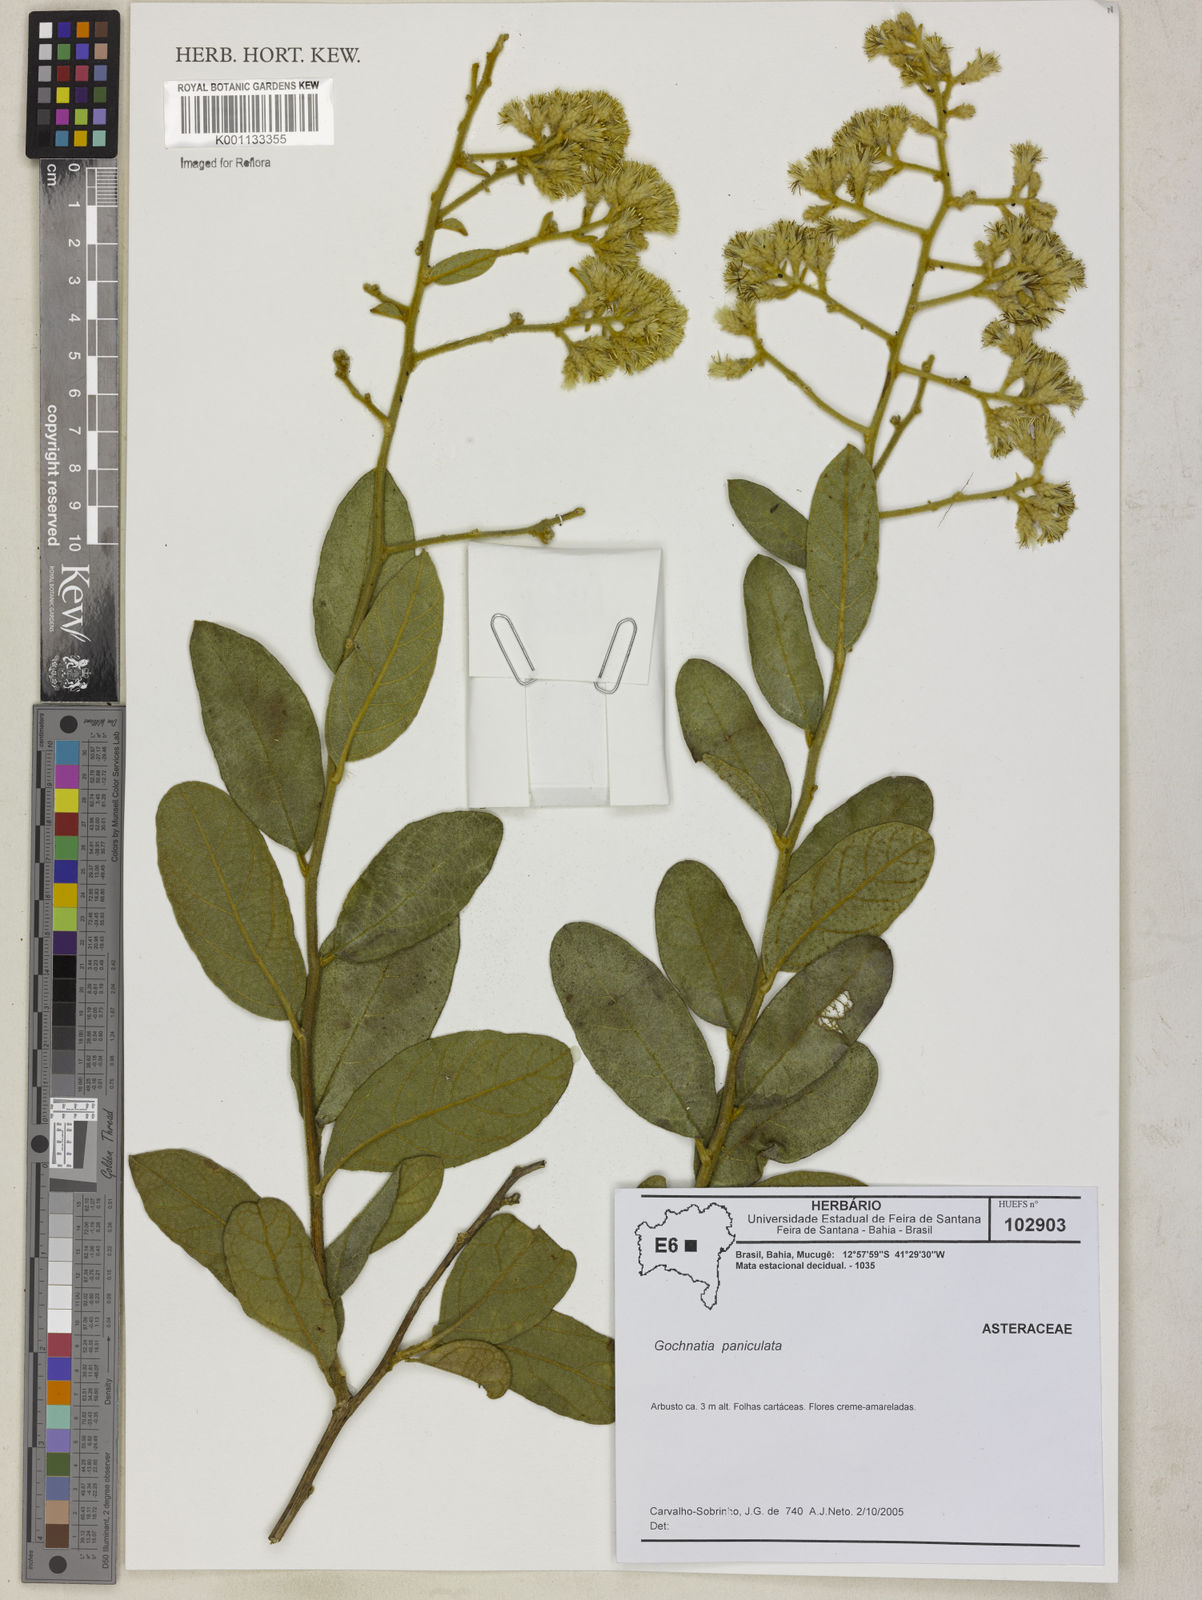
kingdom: Plantae
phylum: Tracheophyta
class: Magnoliopsida
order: Asterales
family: Asteraceae
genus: Moquiniastrum
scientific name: Moquiniastrum paniculatum
